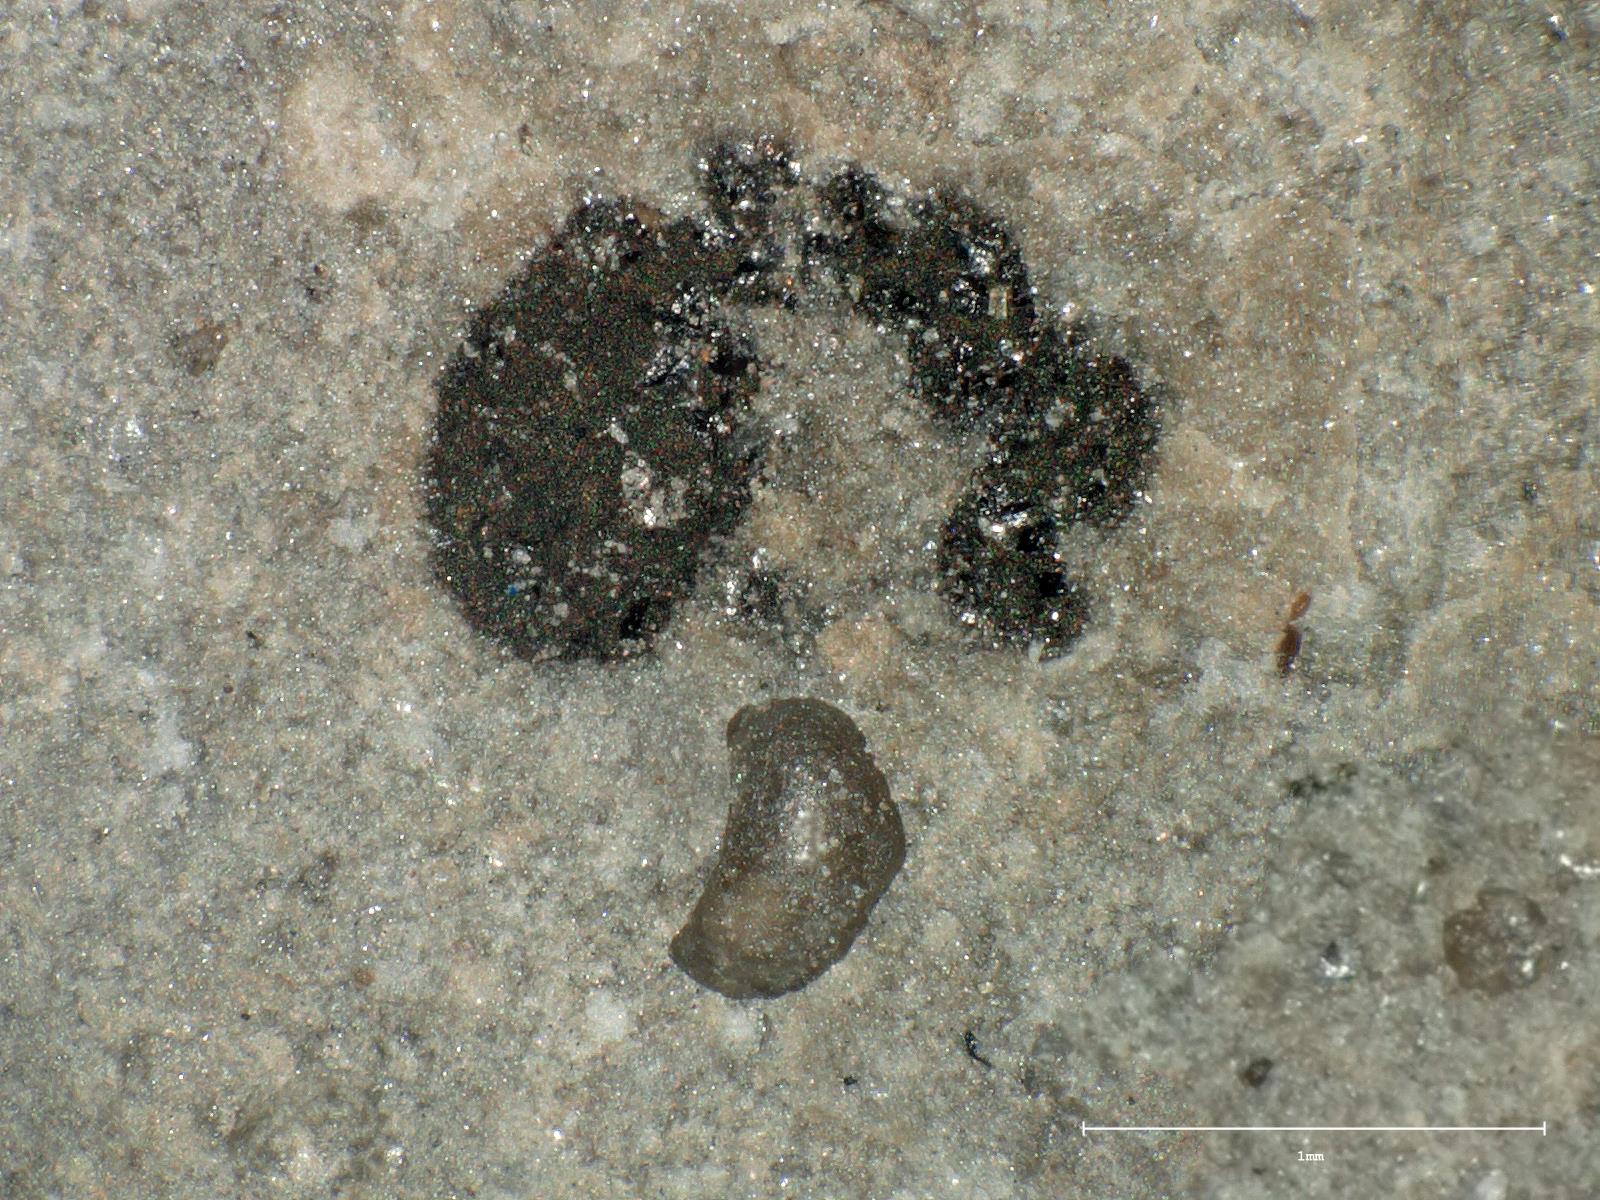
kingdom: Animalia
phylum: Arthropoda
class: Insecta
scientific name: Insecta
